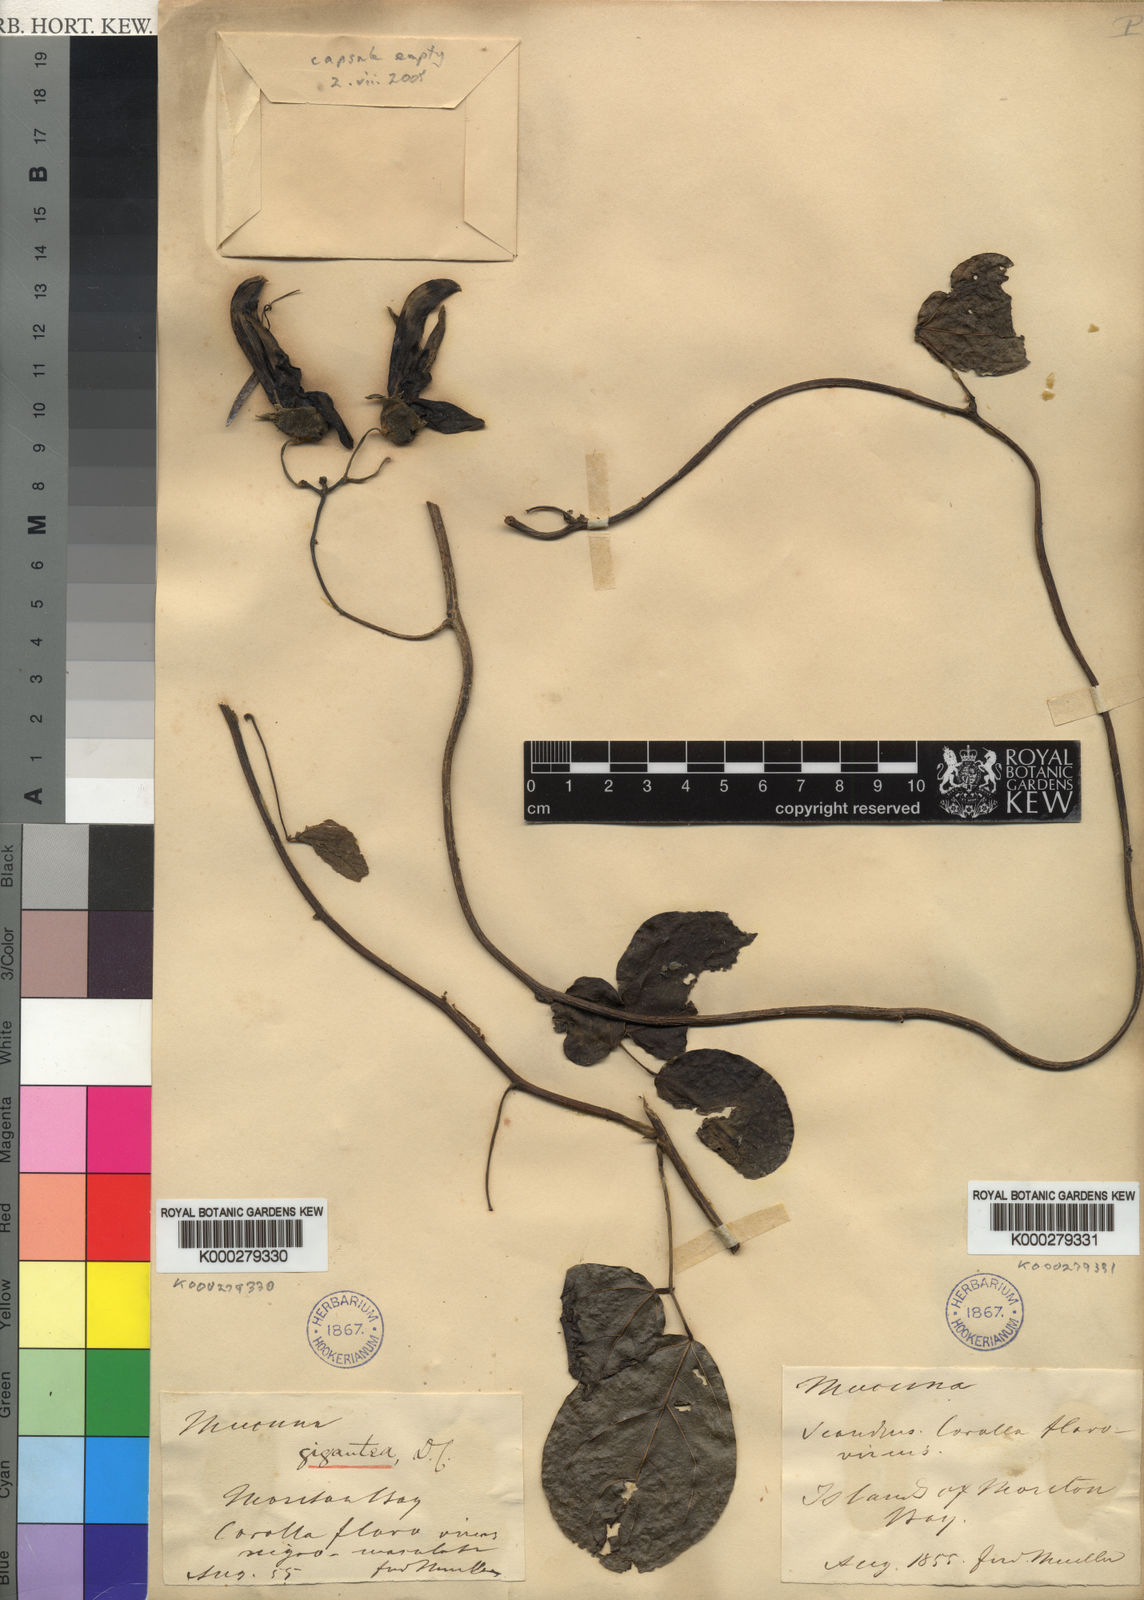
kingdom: Plantae
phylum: Tracheophyta
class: Magnoliopsida
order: Fabales
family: Fabaceae
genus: Mucuna
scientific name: Mucuna gigantea
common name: Black-bean
